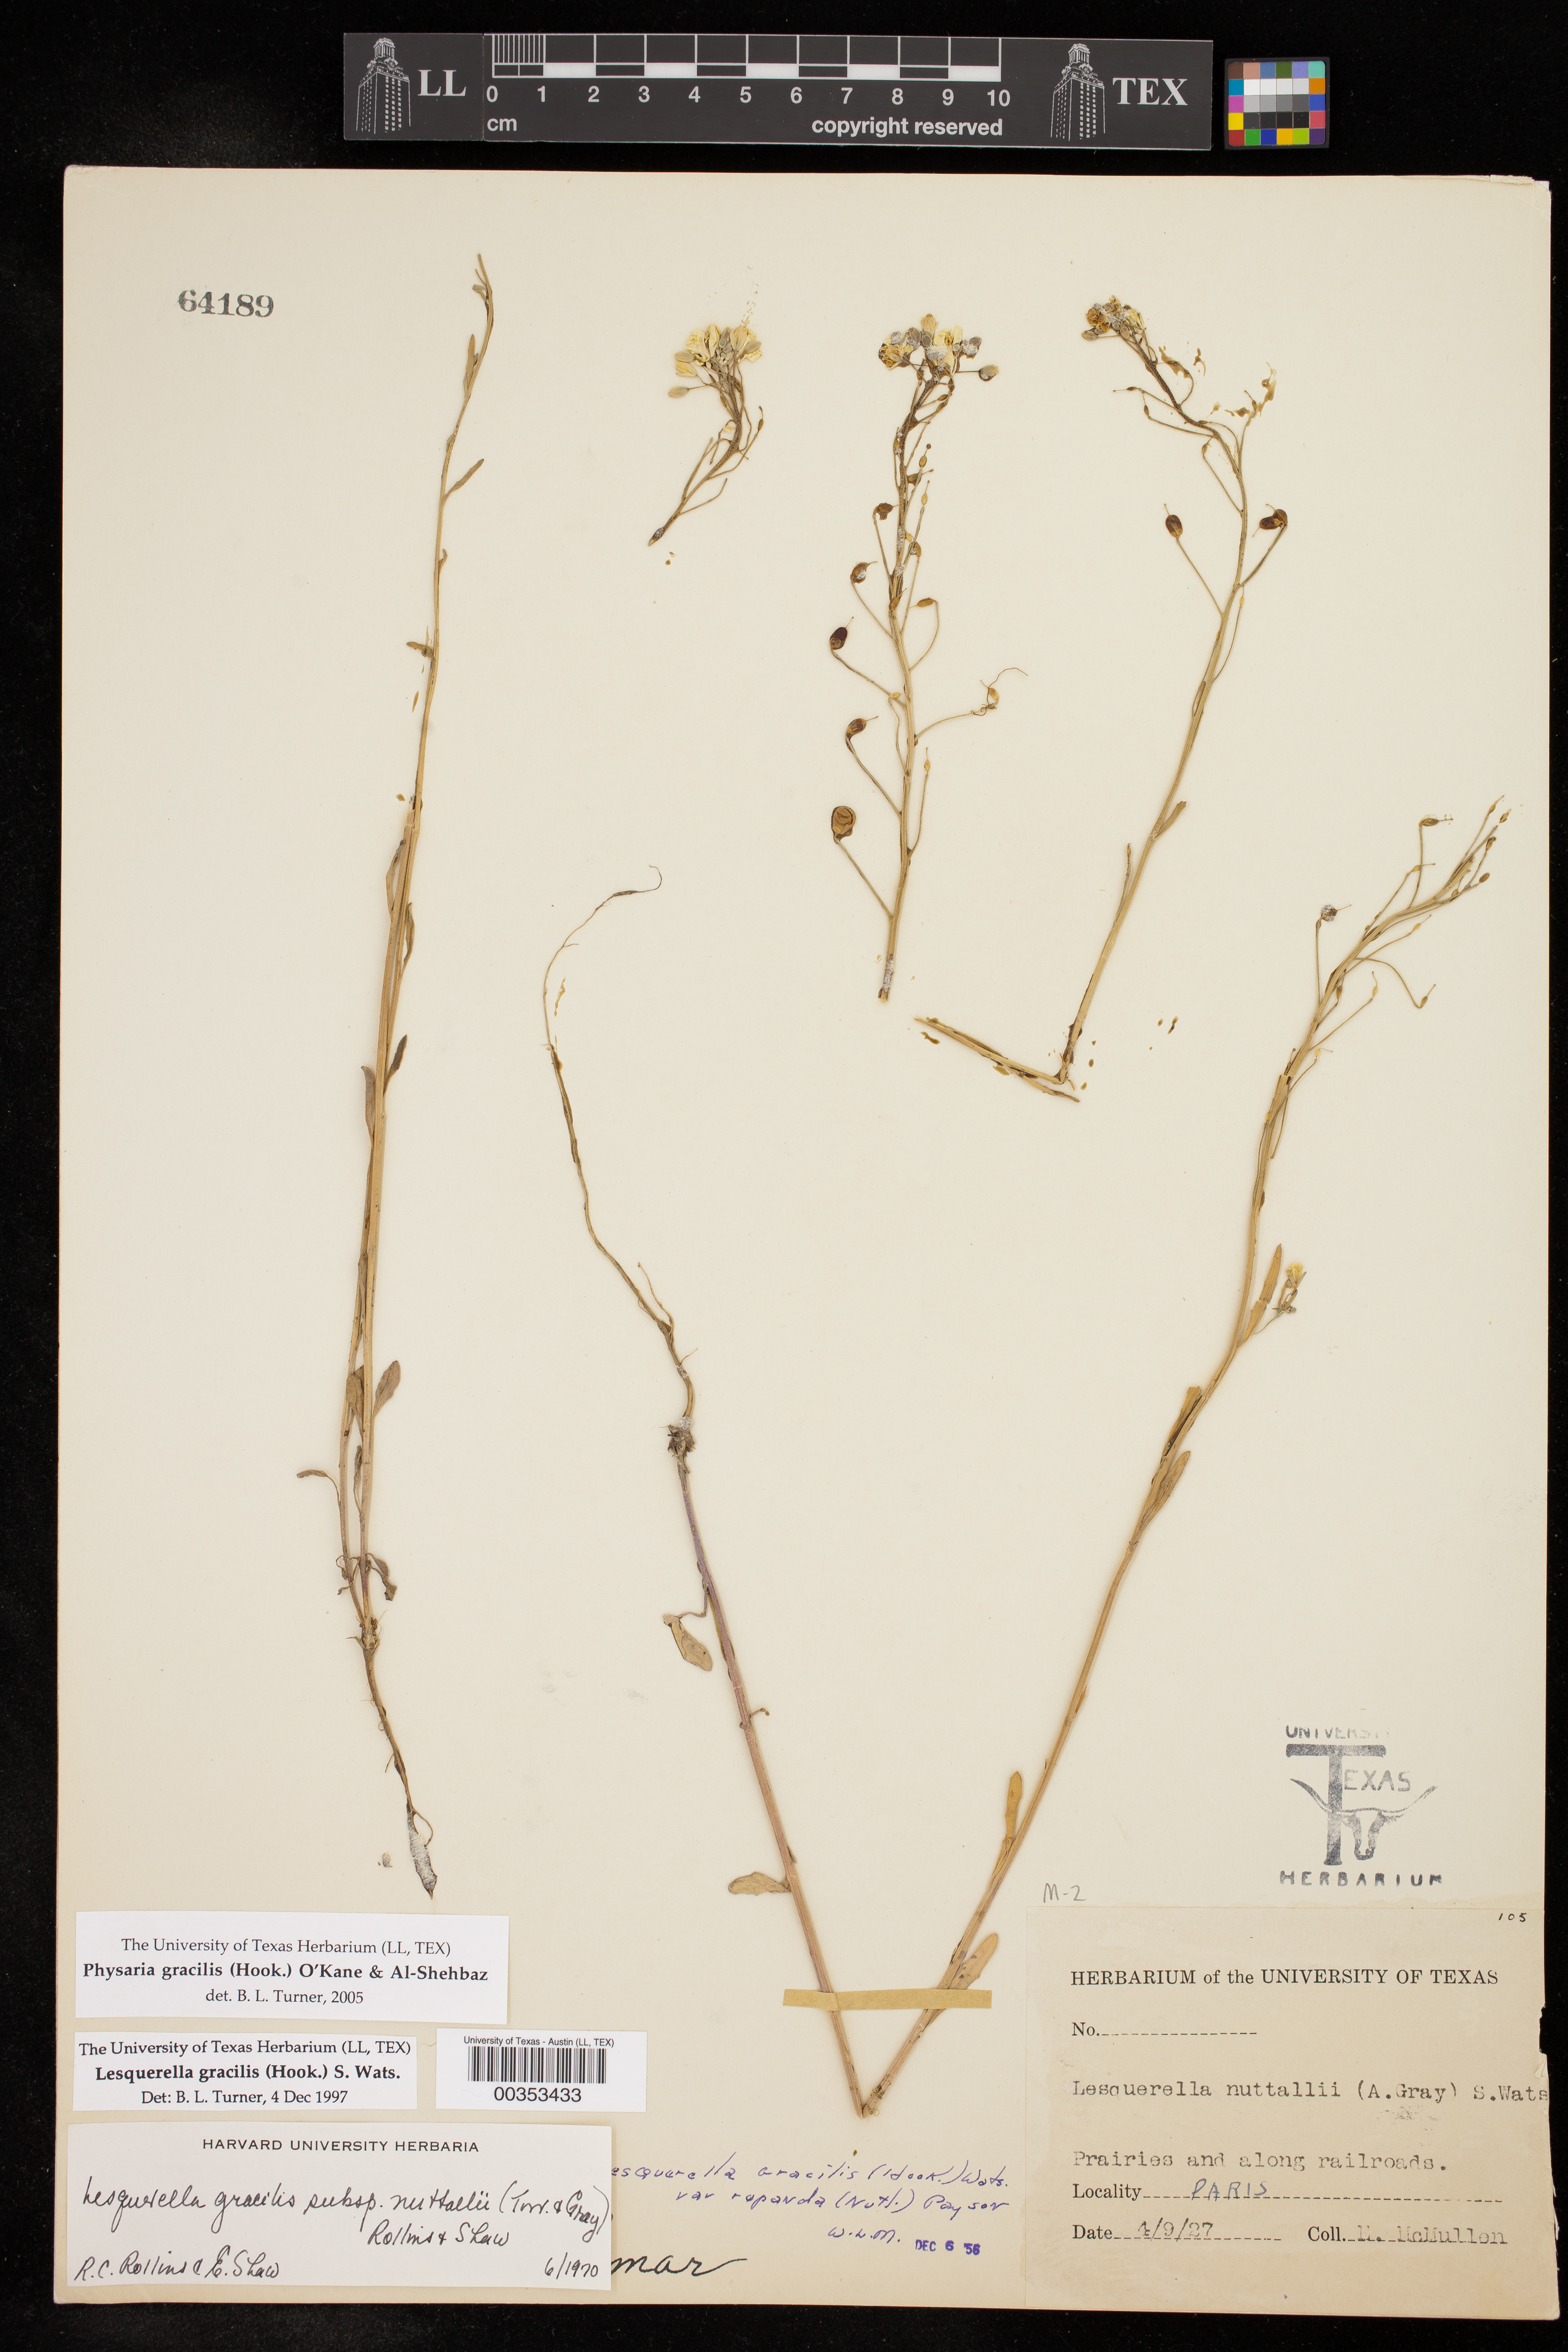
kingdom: Plantae
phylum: Tracheophyta
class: Magnoliopsida
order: Brassicales
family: Brassicaceae
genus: Physaria
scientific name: Physaria gracilis
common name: Spreading bladderpod
